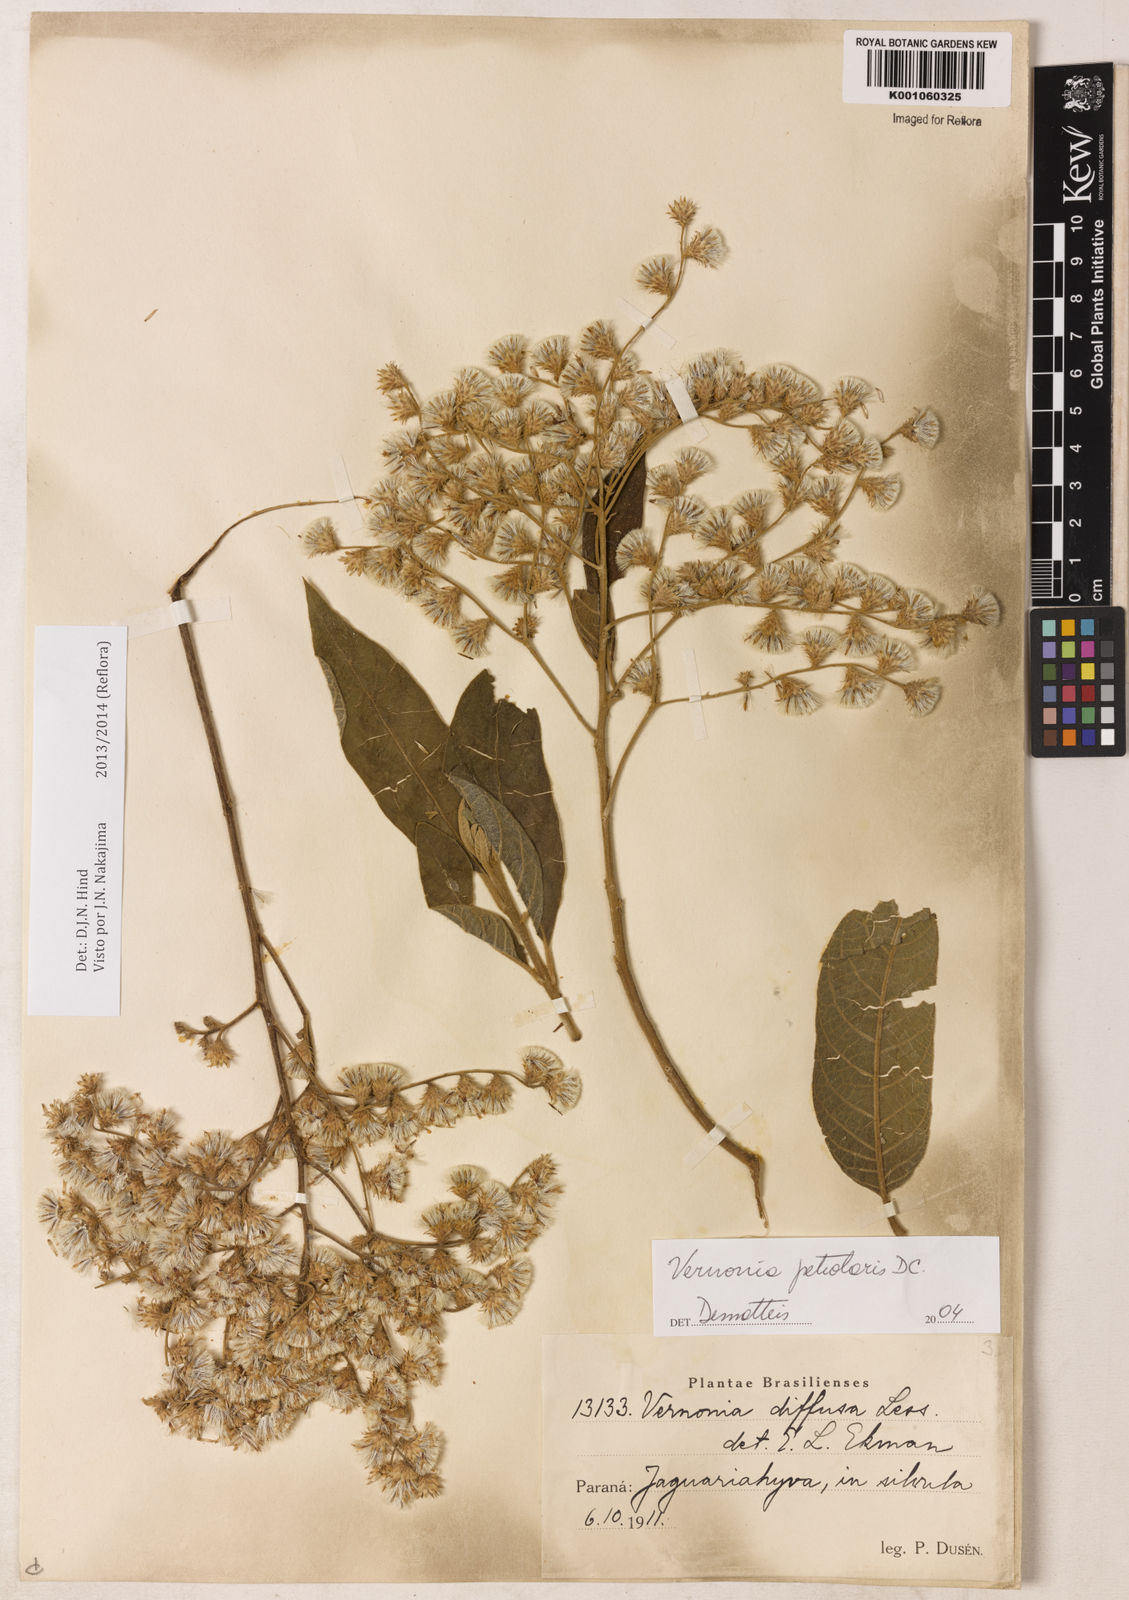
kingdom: Plantae
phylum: Tracheophyta
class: Magnoliopsida
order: Asterales
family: Asteraceae
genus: Vernonanthura
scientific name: Vernonanthura petiolaris
